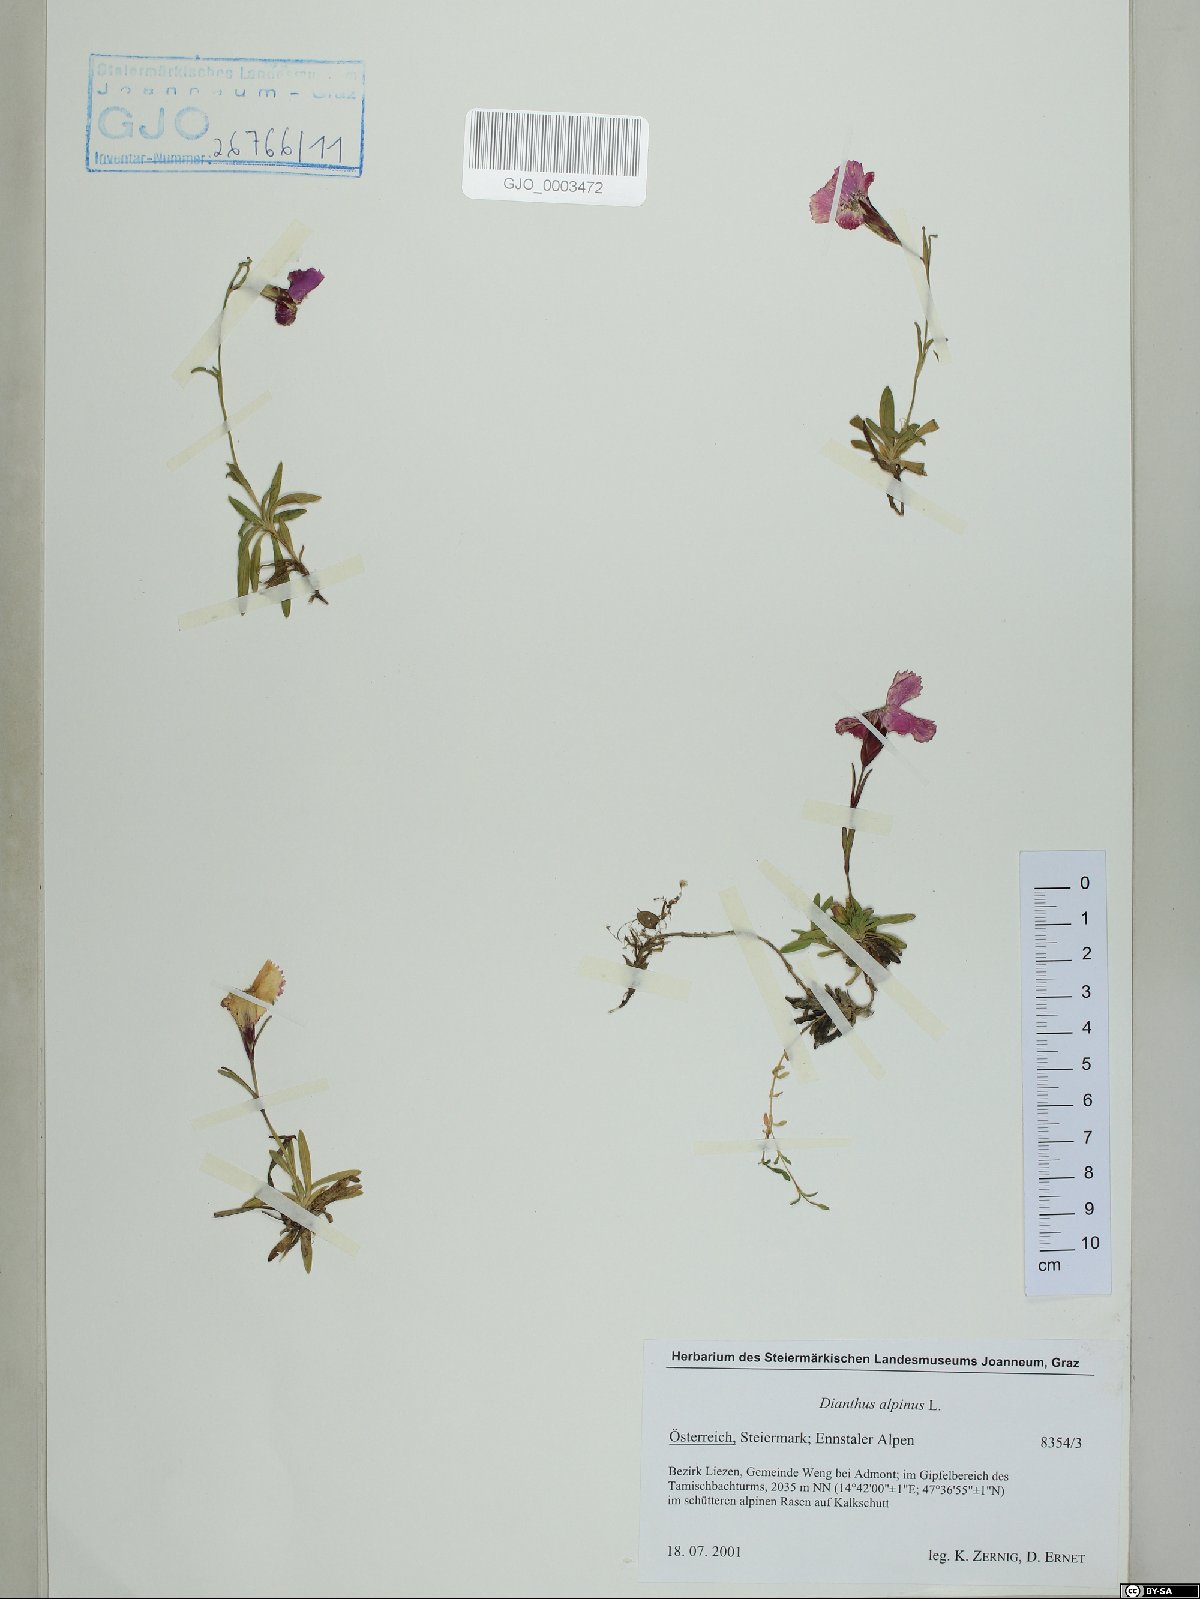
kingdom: Plantae
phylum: Tracheophyta
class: Magnoliopsida
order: Caryophyllales
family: Caryophyllaceae
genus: Dianthus
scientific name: Dianthus alpinus
